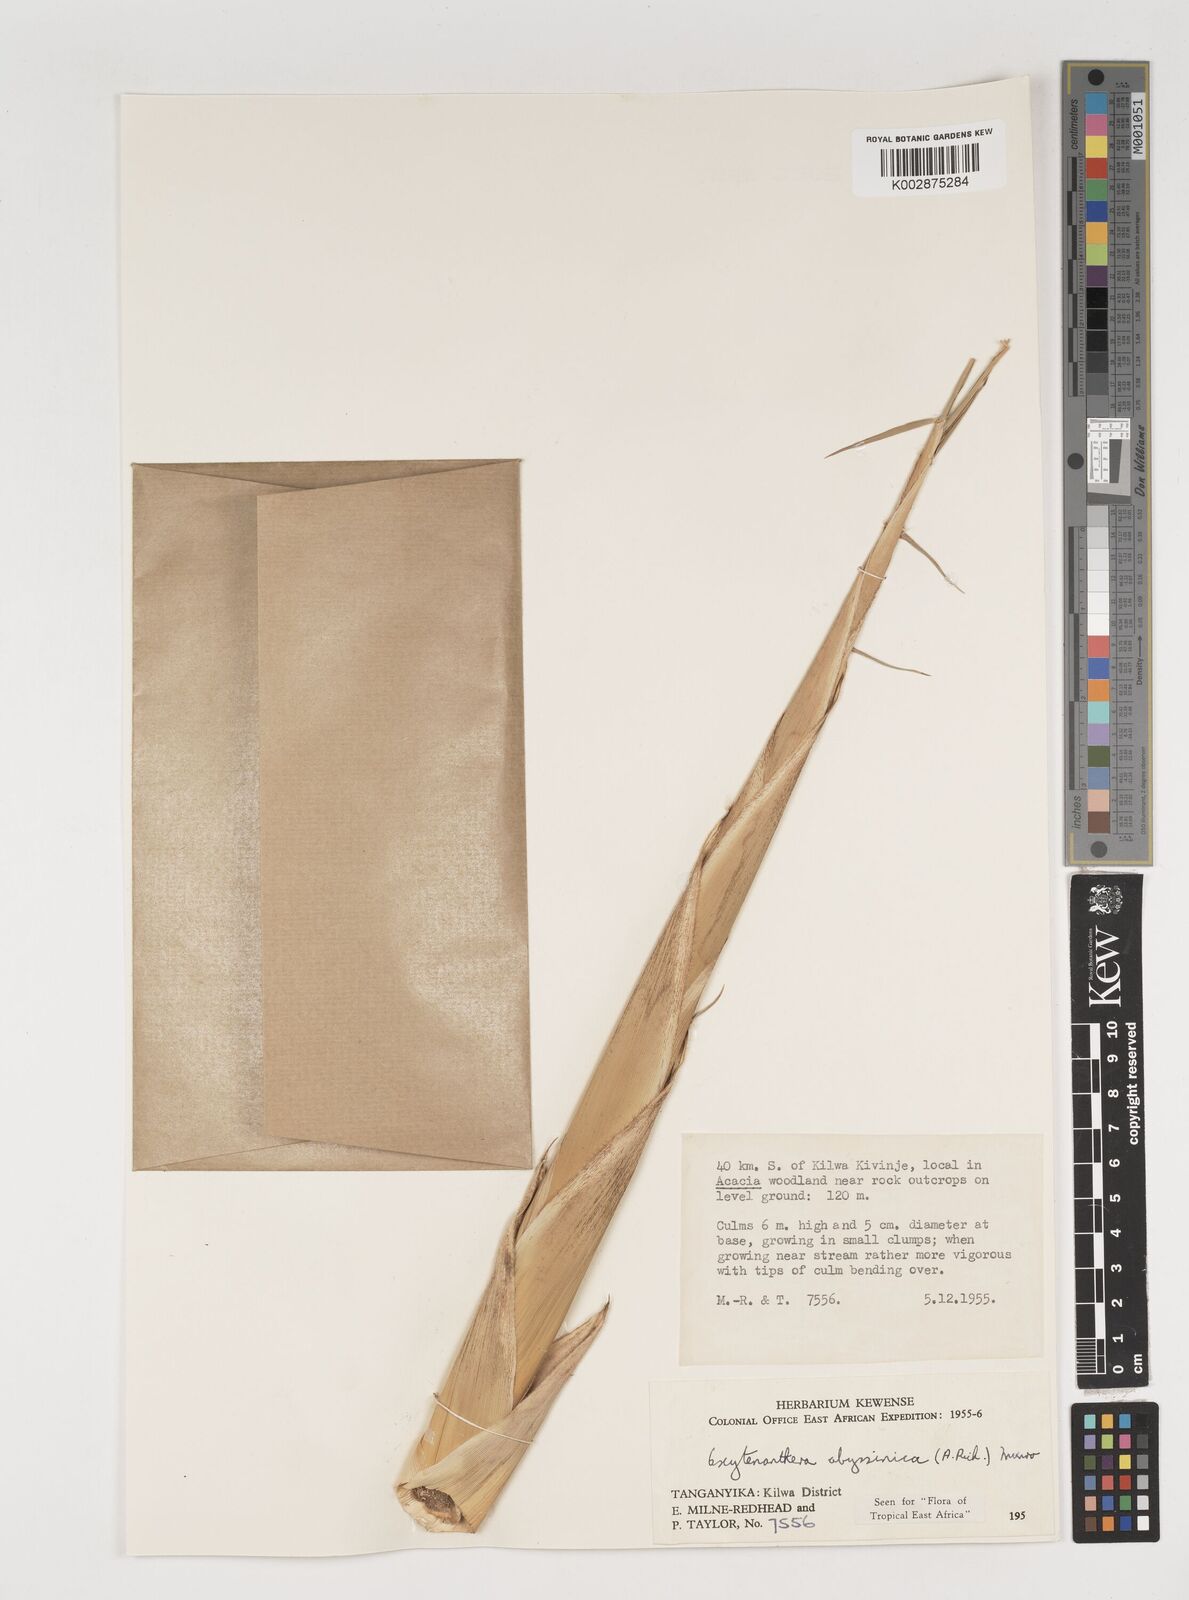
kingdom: Plantae
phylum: Tracheophyta
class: Liliopsida
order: Poales
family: Poaceae
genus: Oxytenanthera
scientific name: Oxytenanthera abyssinica
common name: Wine bamboo
